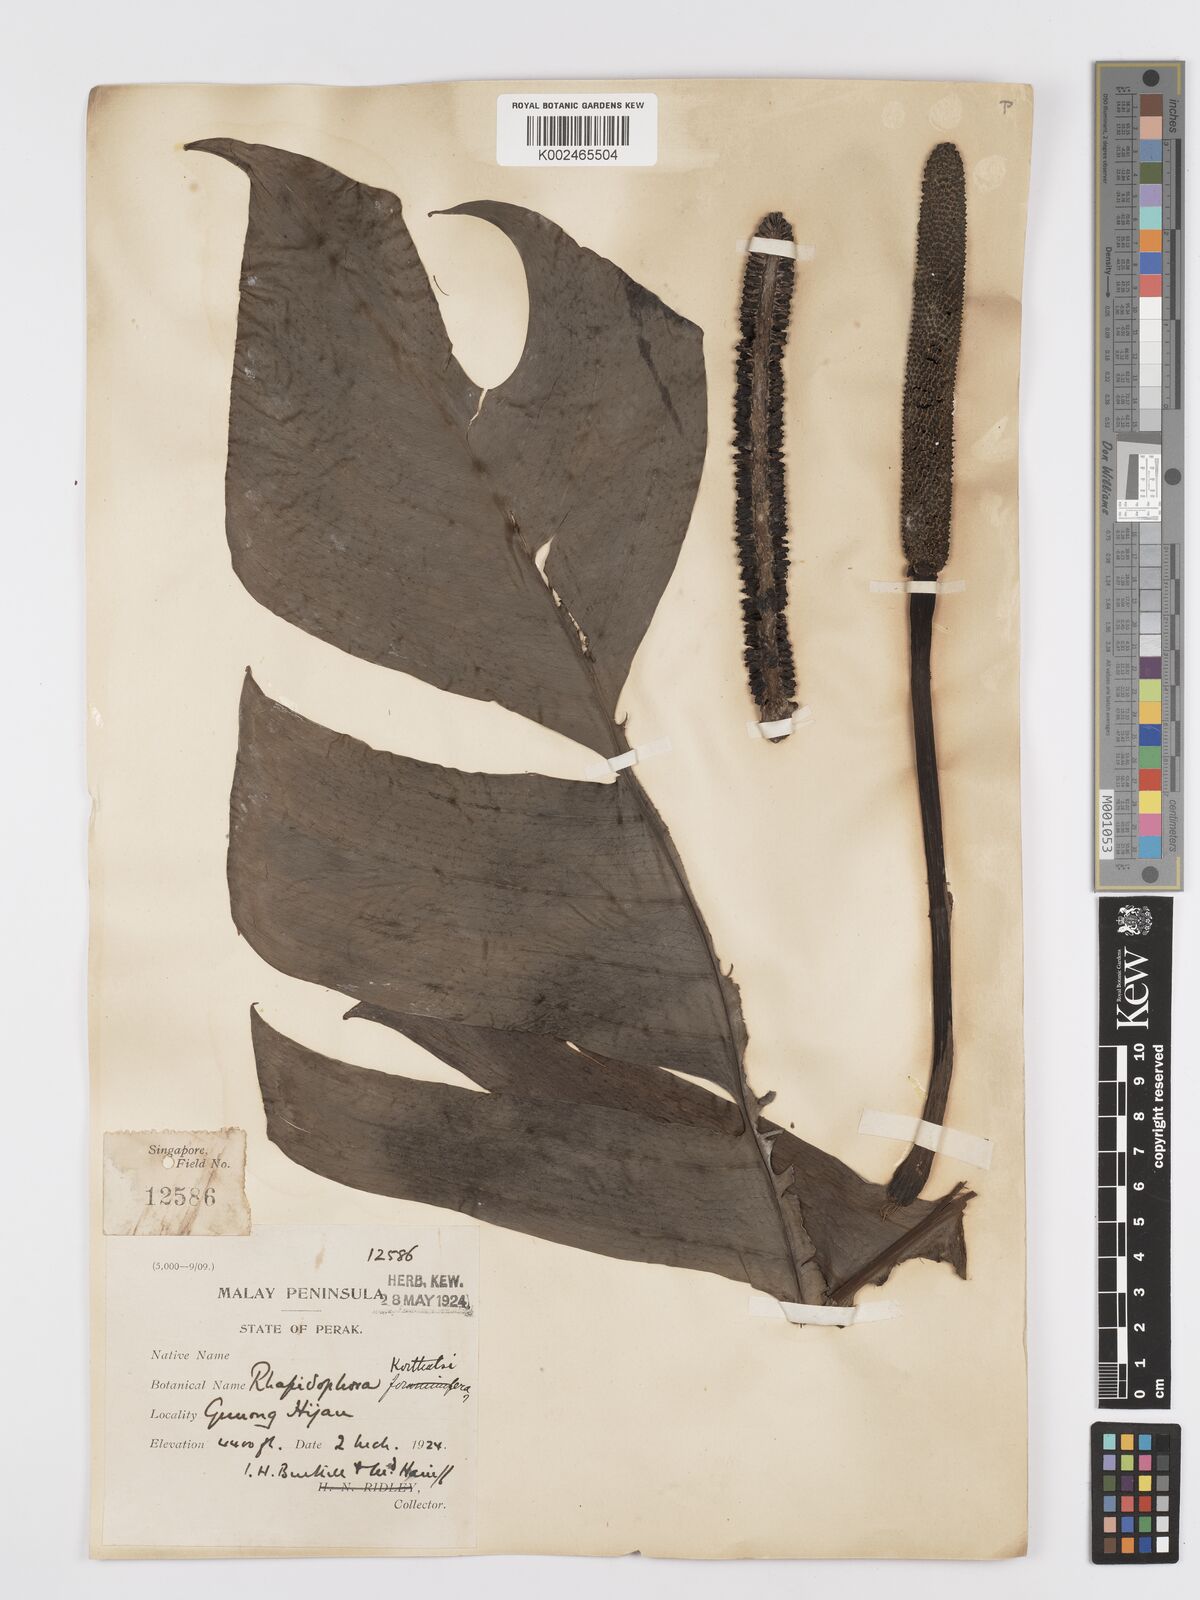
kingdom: Plantae
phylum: Tracheophyta
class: Liliopsida
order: Alismatales
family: Araceae
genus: Rhaphidophora
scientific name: Rhaphidophora korthalsii
